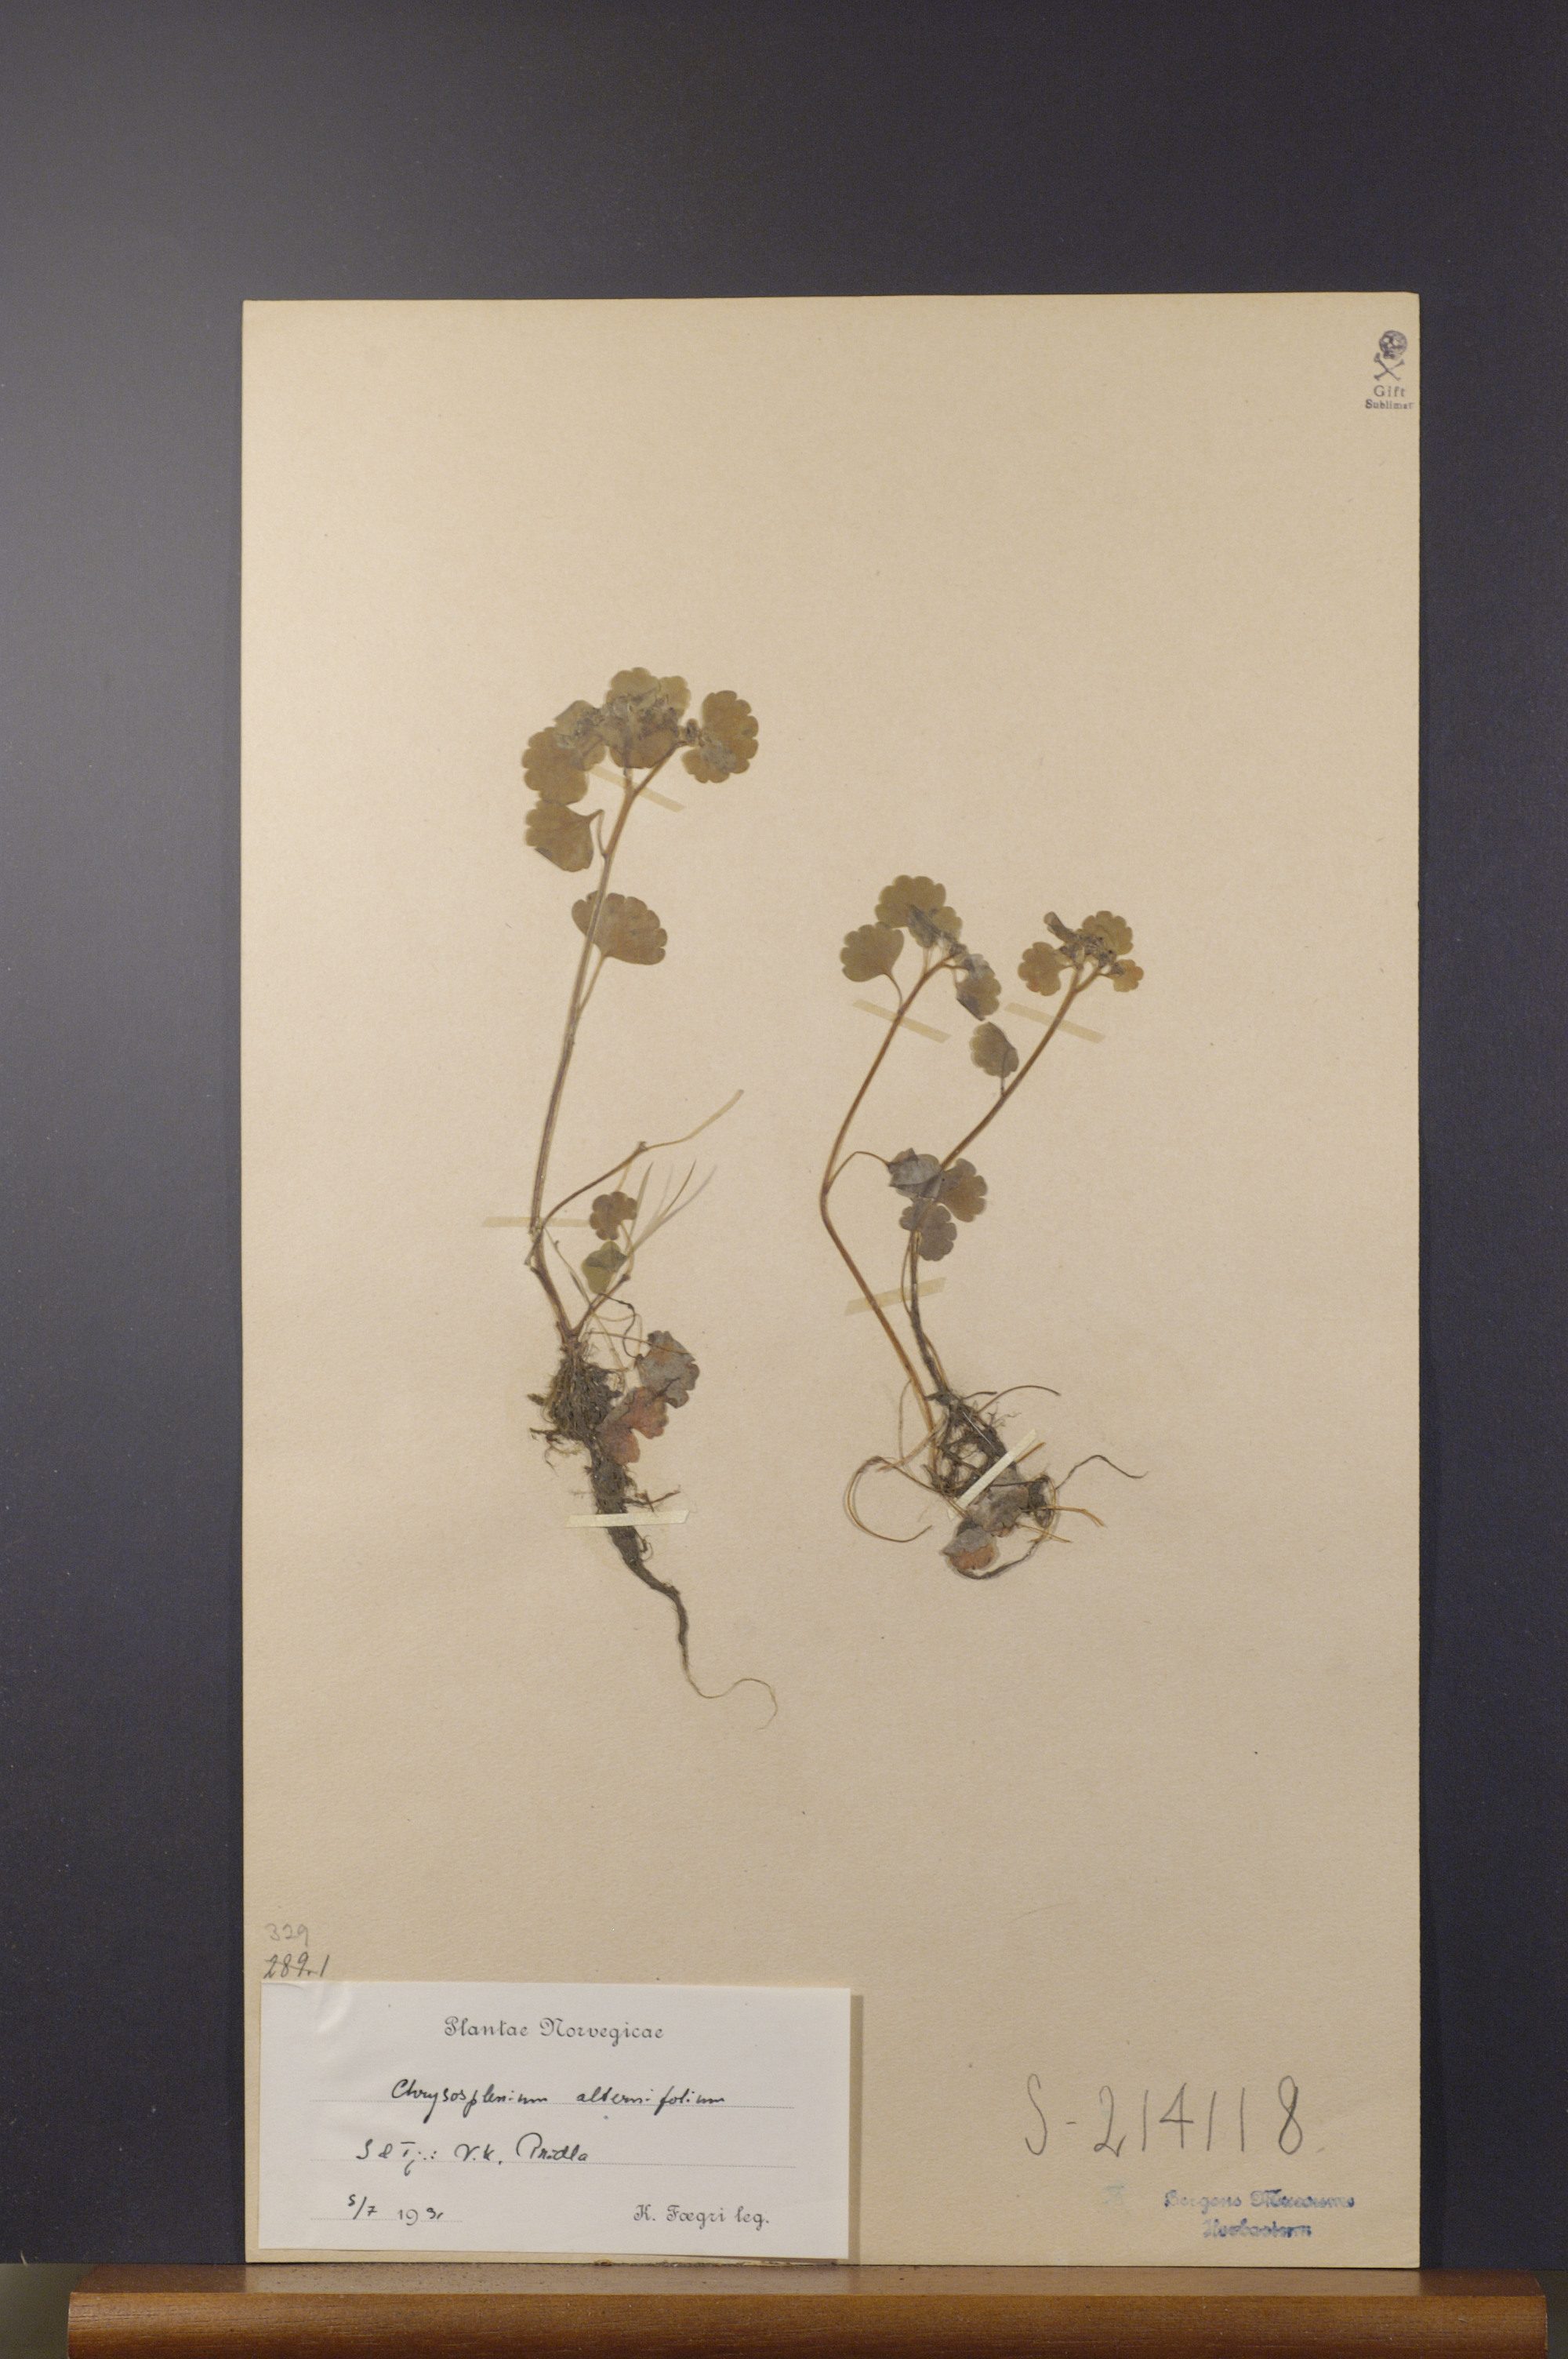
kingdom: Plantae
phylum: Tracheophyta
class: Magnoliopsida
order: Saxifragales
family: Saxifragaceae
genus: Chrysosplenium
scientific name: Chrysosplenium alternifolium
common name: Alternate-leaved golden-saxifrage
